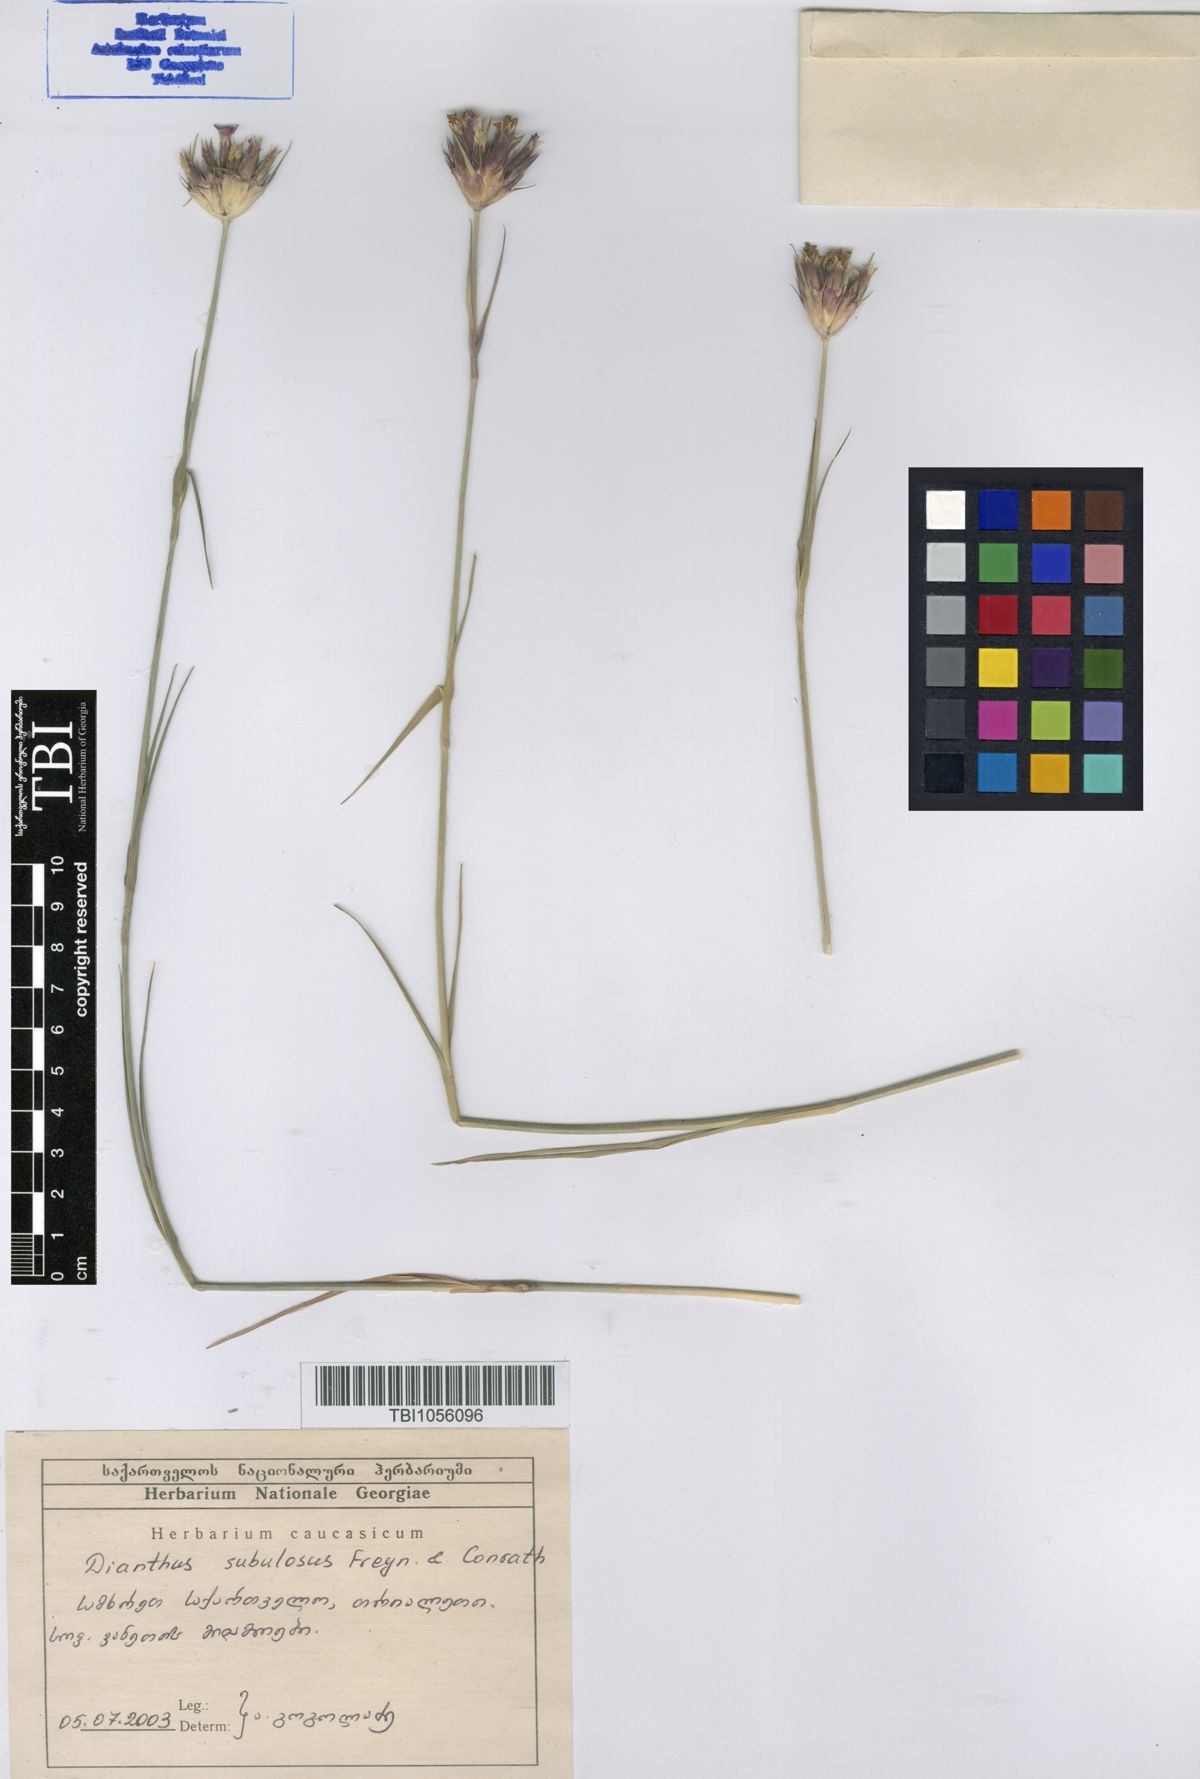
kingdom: Plantae
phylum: Tracheophyta
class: Magnoliopsida
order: Caryophyllales
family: Caryophyllaceae
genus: Dianthus
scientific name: Dianthus subulosus
